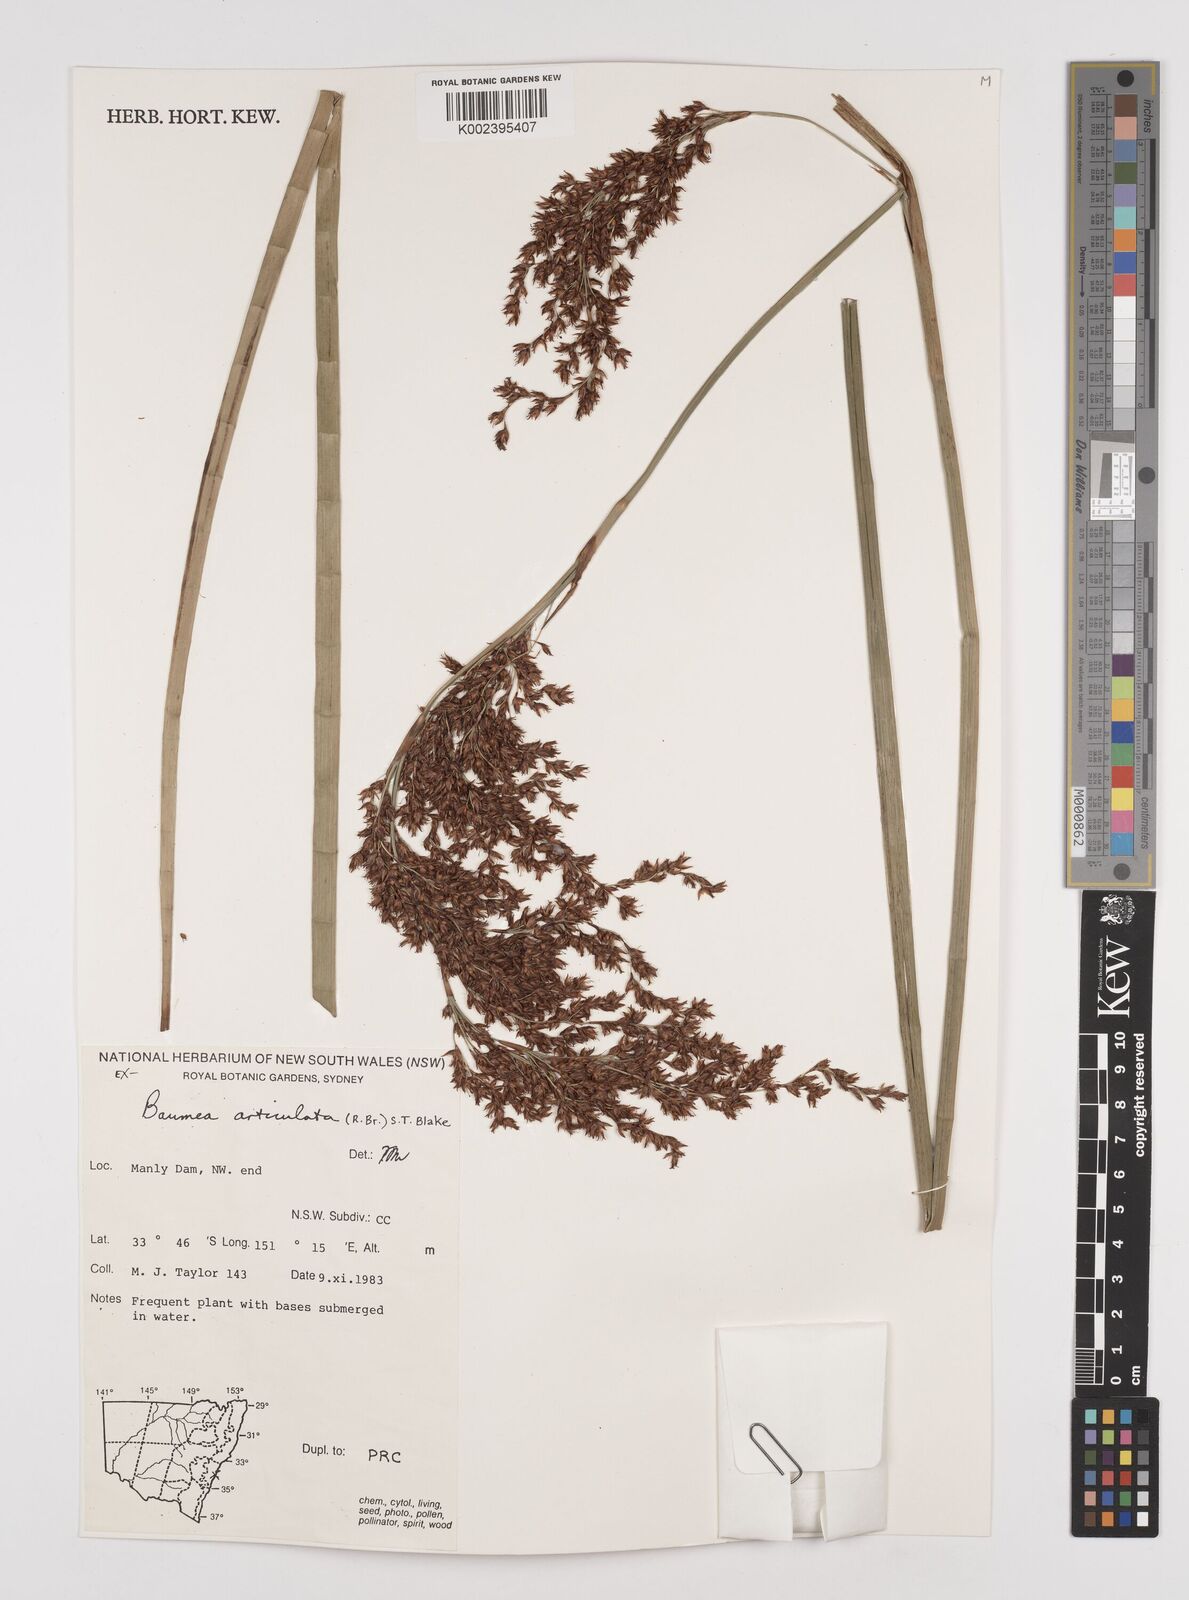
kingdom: Plantae
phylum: Tracheophyta
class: Liliopsida
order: Poales
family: Cyperaceae
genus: Machaerina
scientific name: Machaerina articulata
